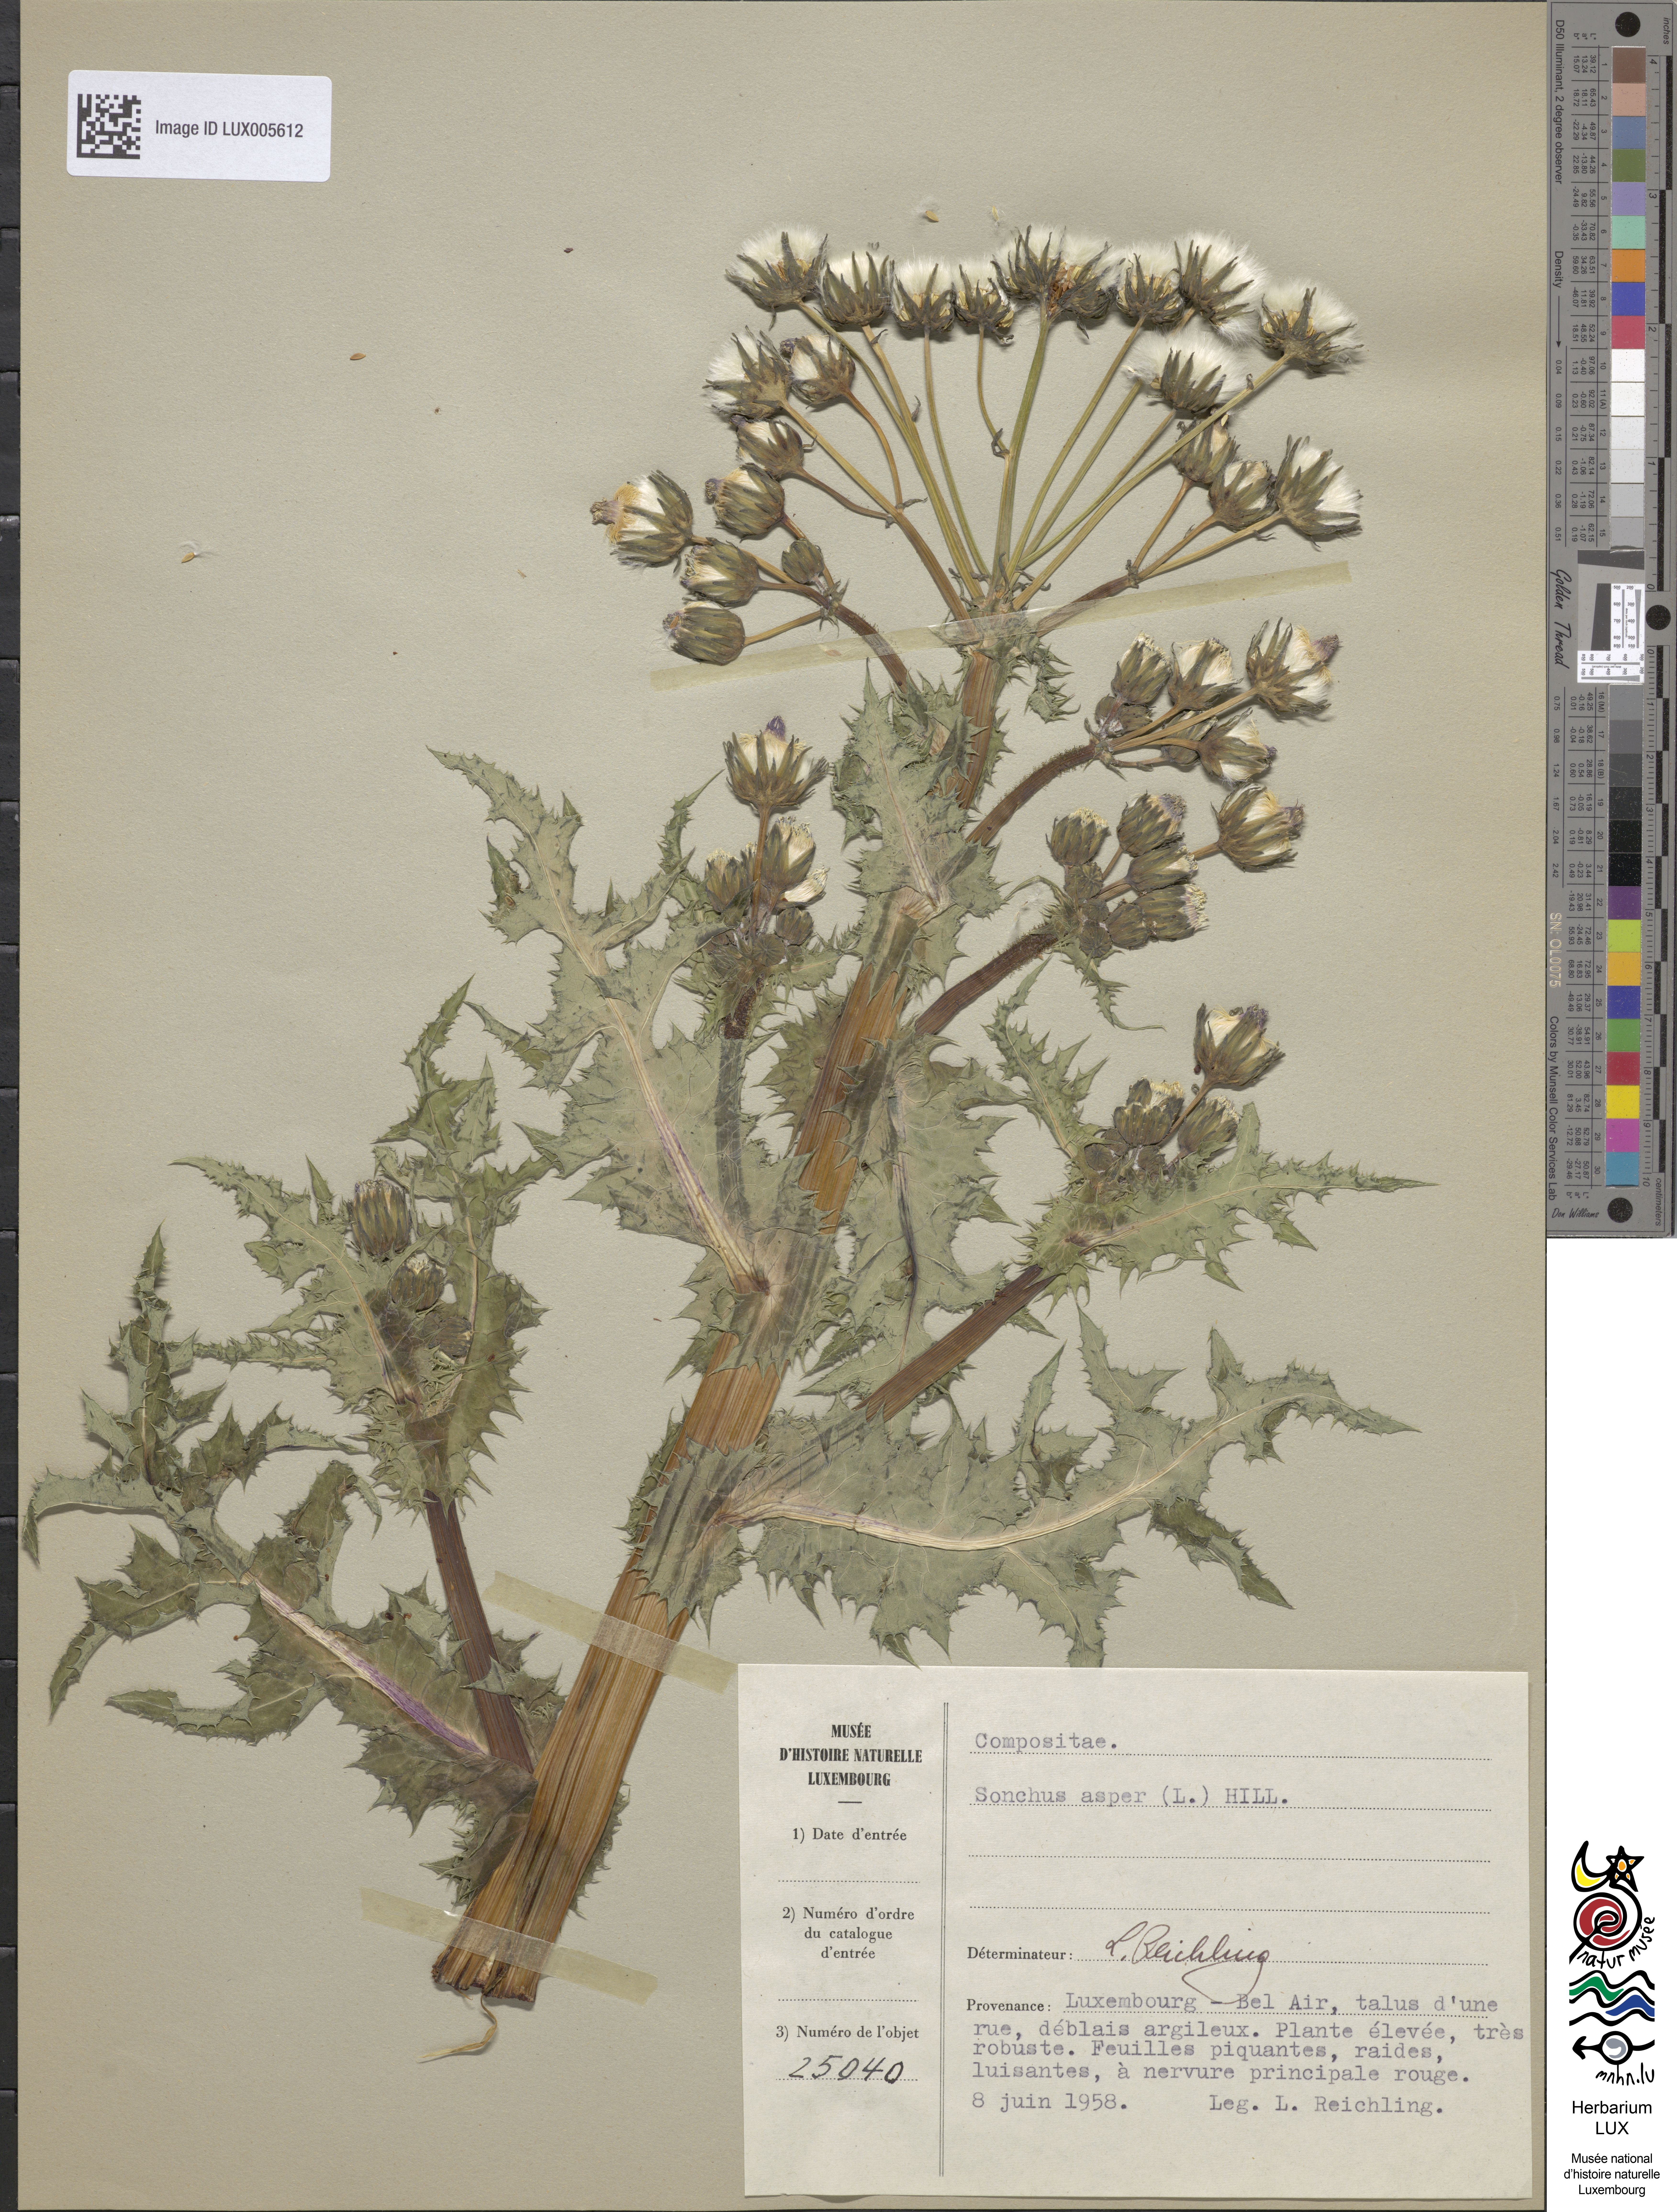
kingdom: Plantae
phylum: Tracheophyta
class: Magnoliopsida
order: Asterales
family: Asteraceae
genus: Sonchus
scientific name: Sonchus asper
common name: Prickly sow-thistle
